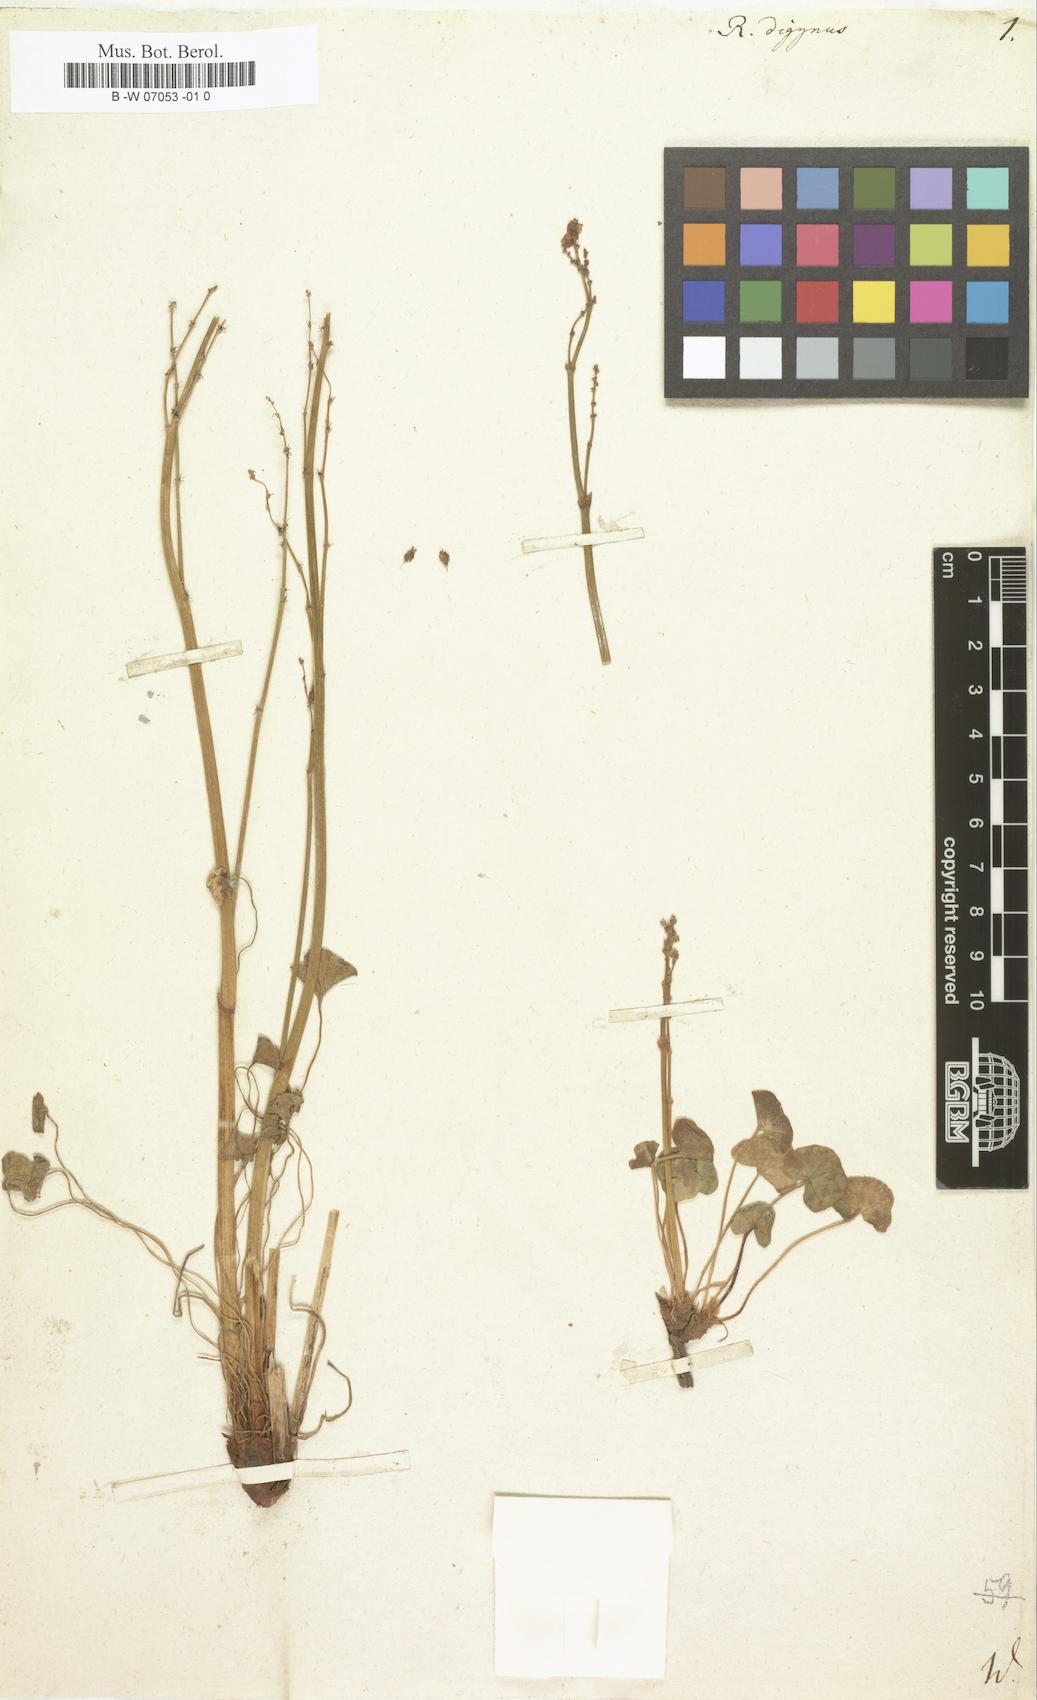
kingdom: Plantae
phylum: Tracheophyta
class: Magnoliopsida
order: Caryophyllales
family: Polygonaceae
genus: Oxyria
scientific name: Oxyria digyna
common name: Alpine mountain-sorrel
